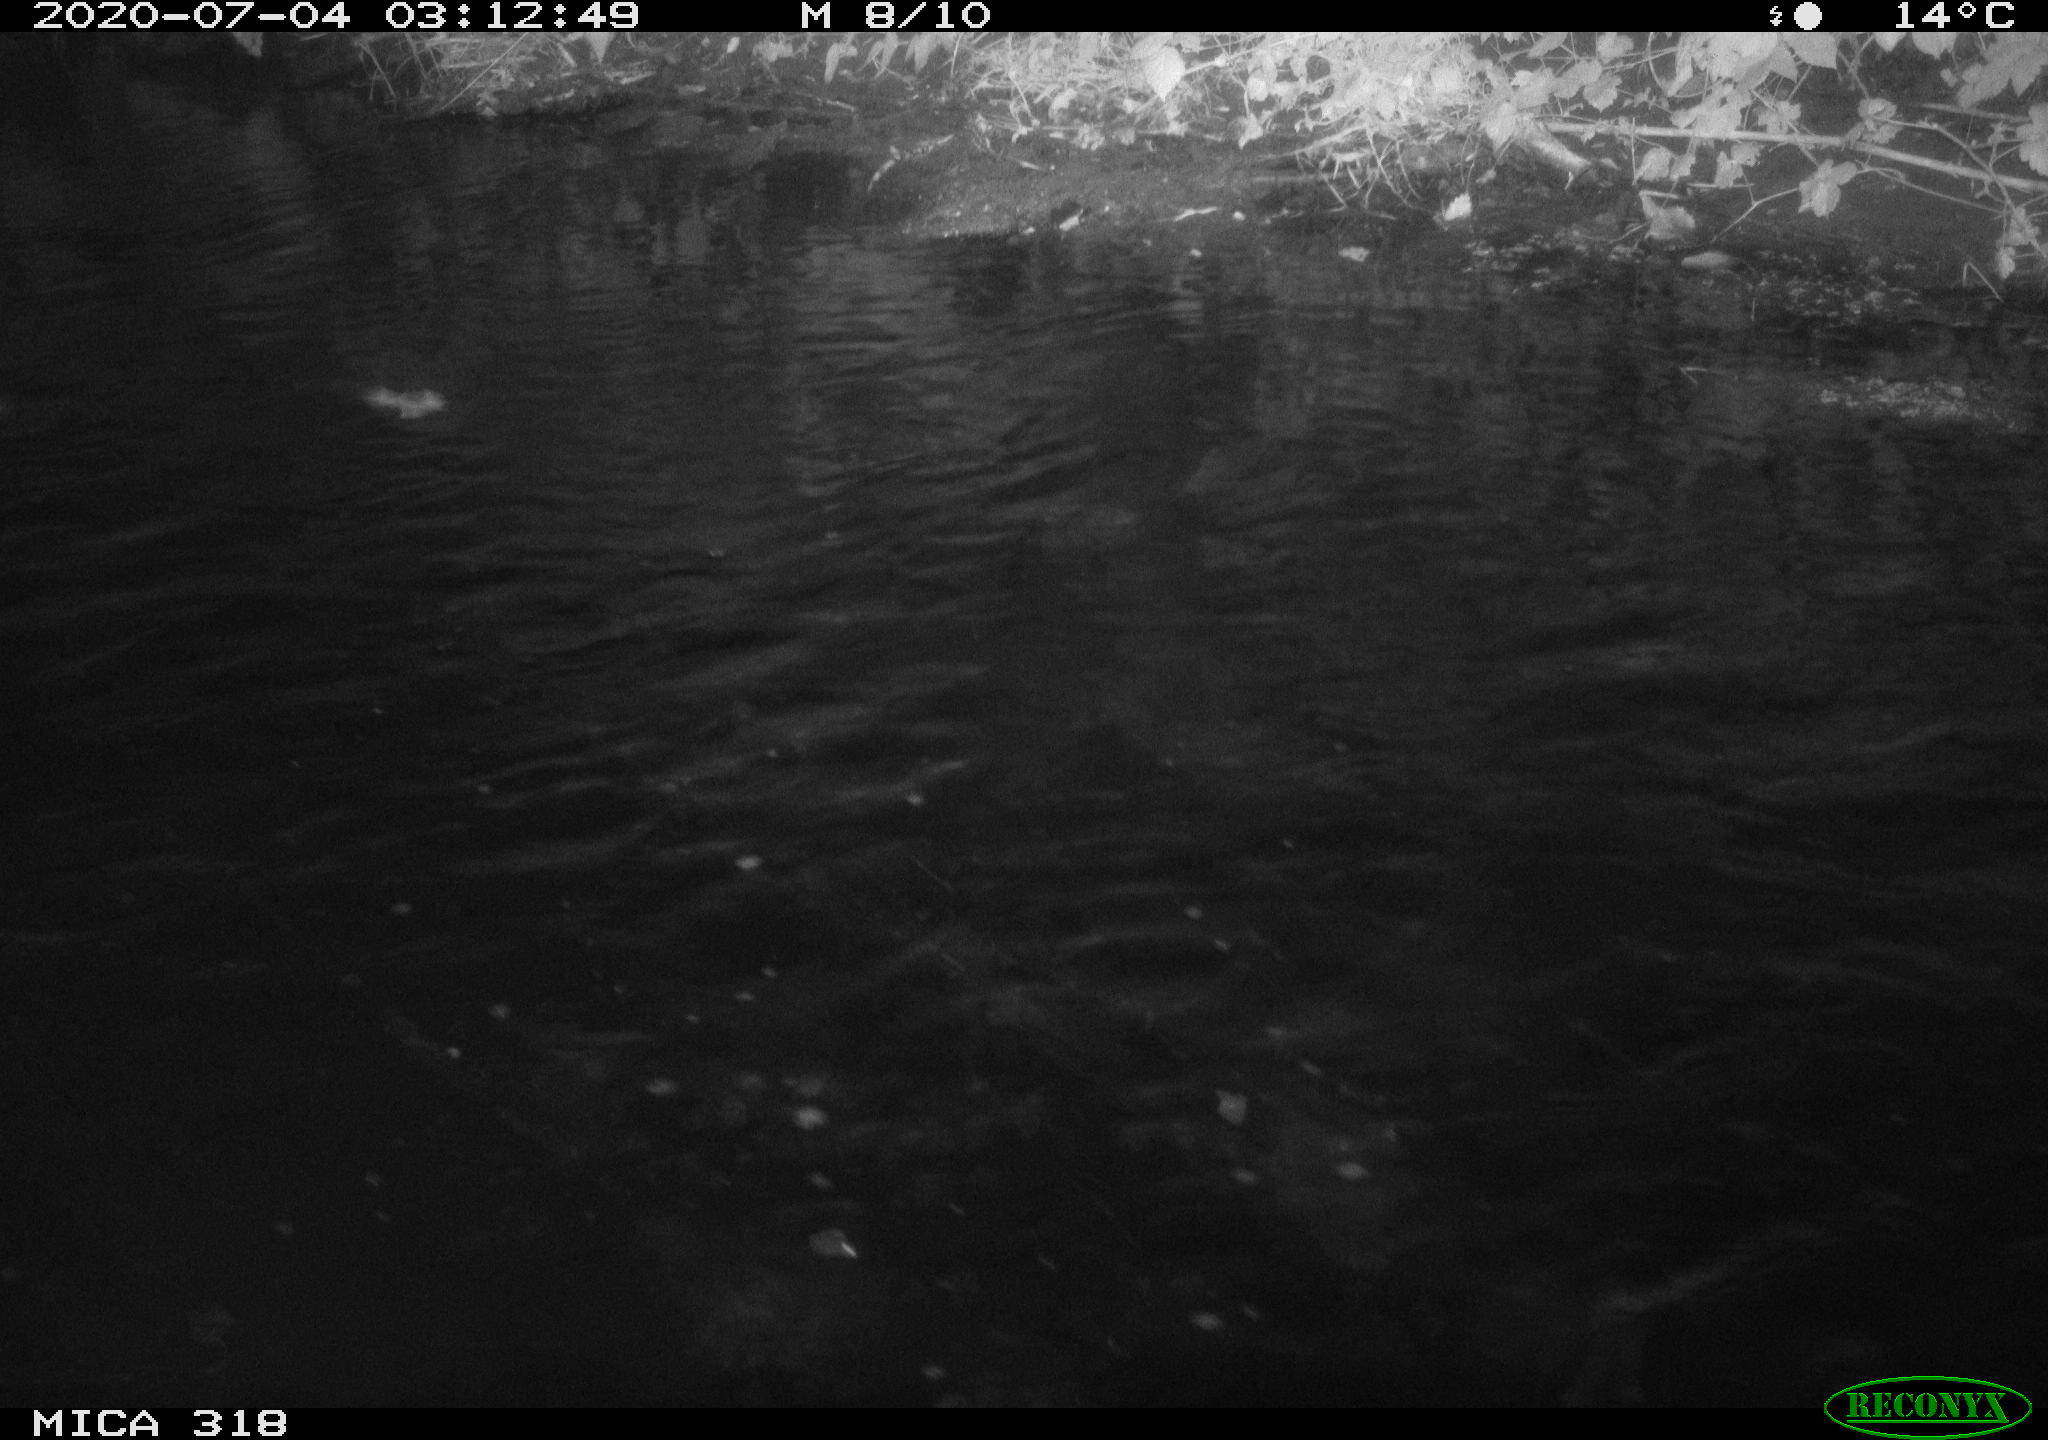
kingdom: Animalia
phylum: Chordata
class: Aves
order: Anseriformes
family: Anatidae
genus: Anas
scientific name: Anas platyrhynchos
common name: Mallard
